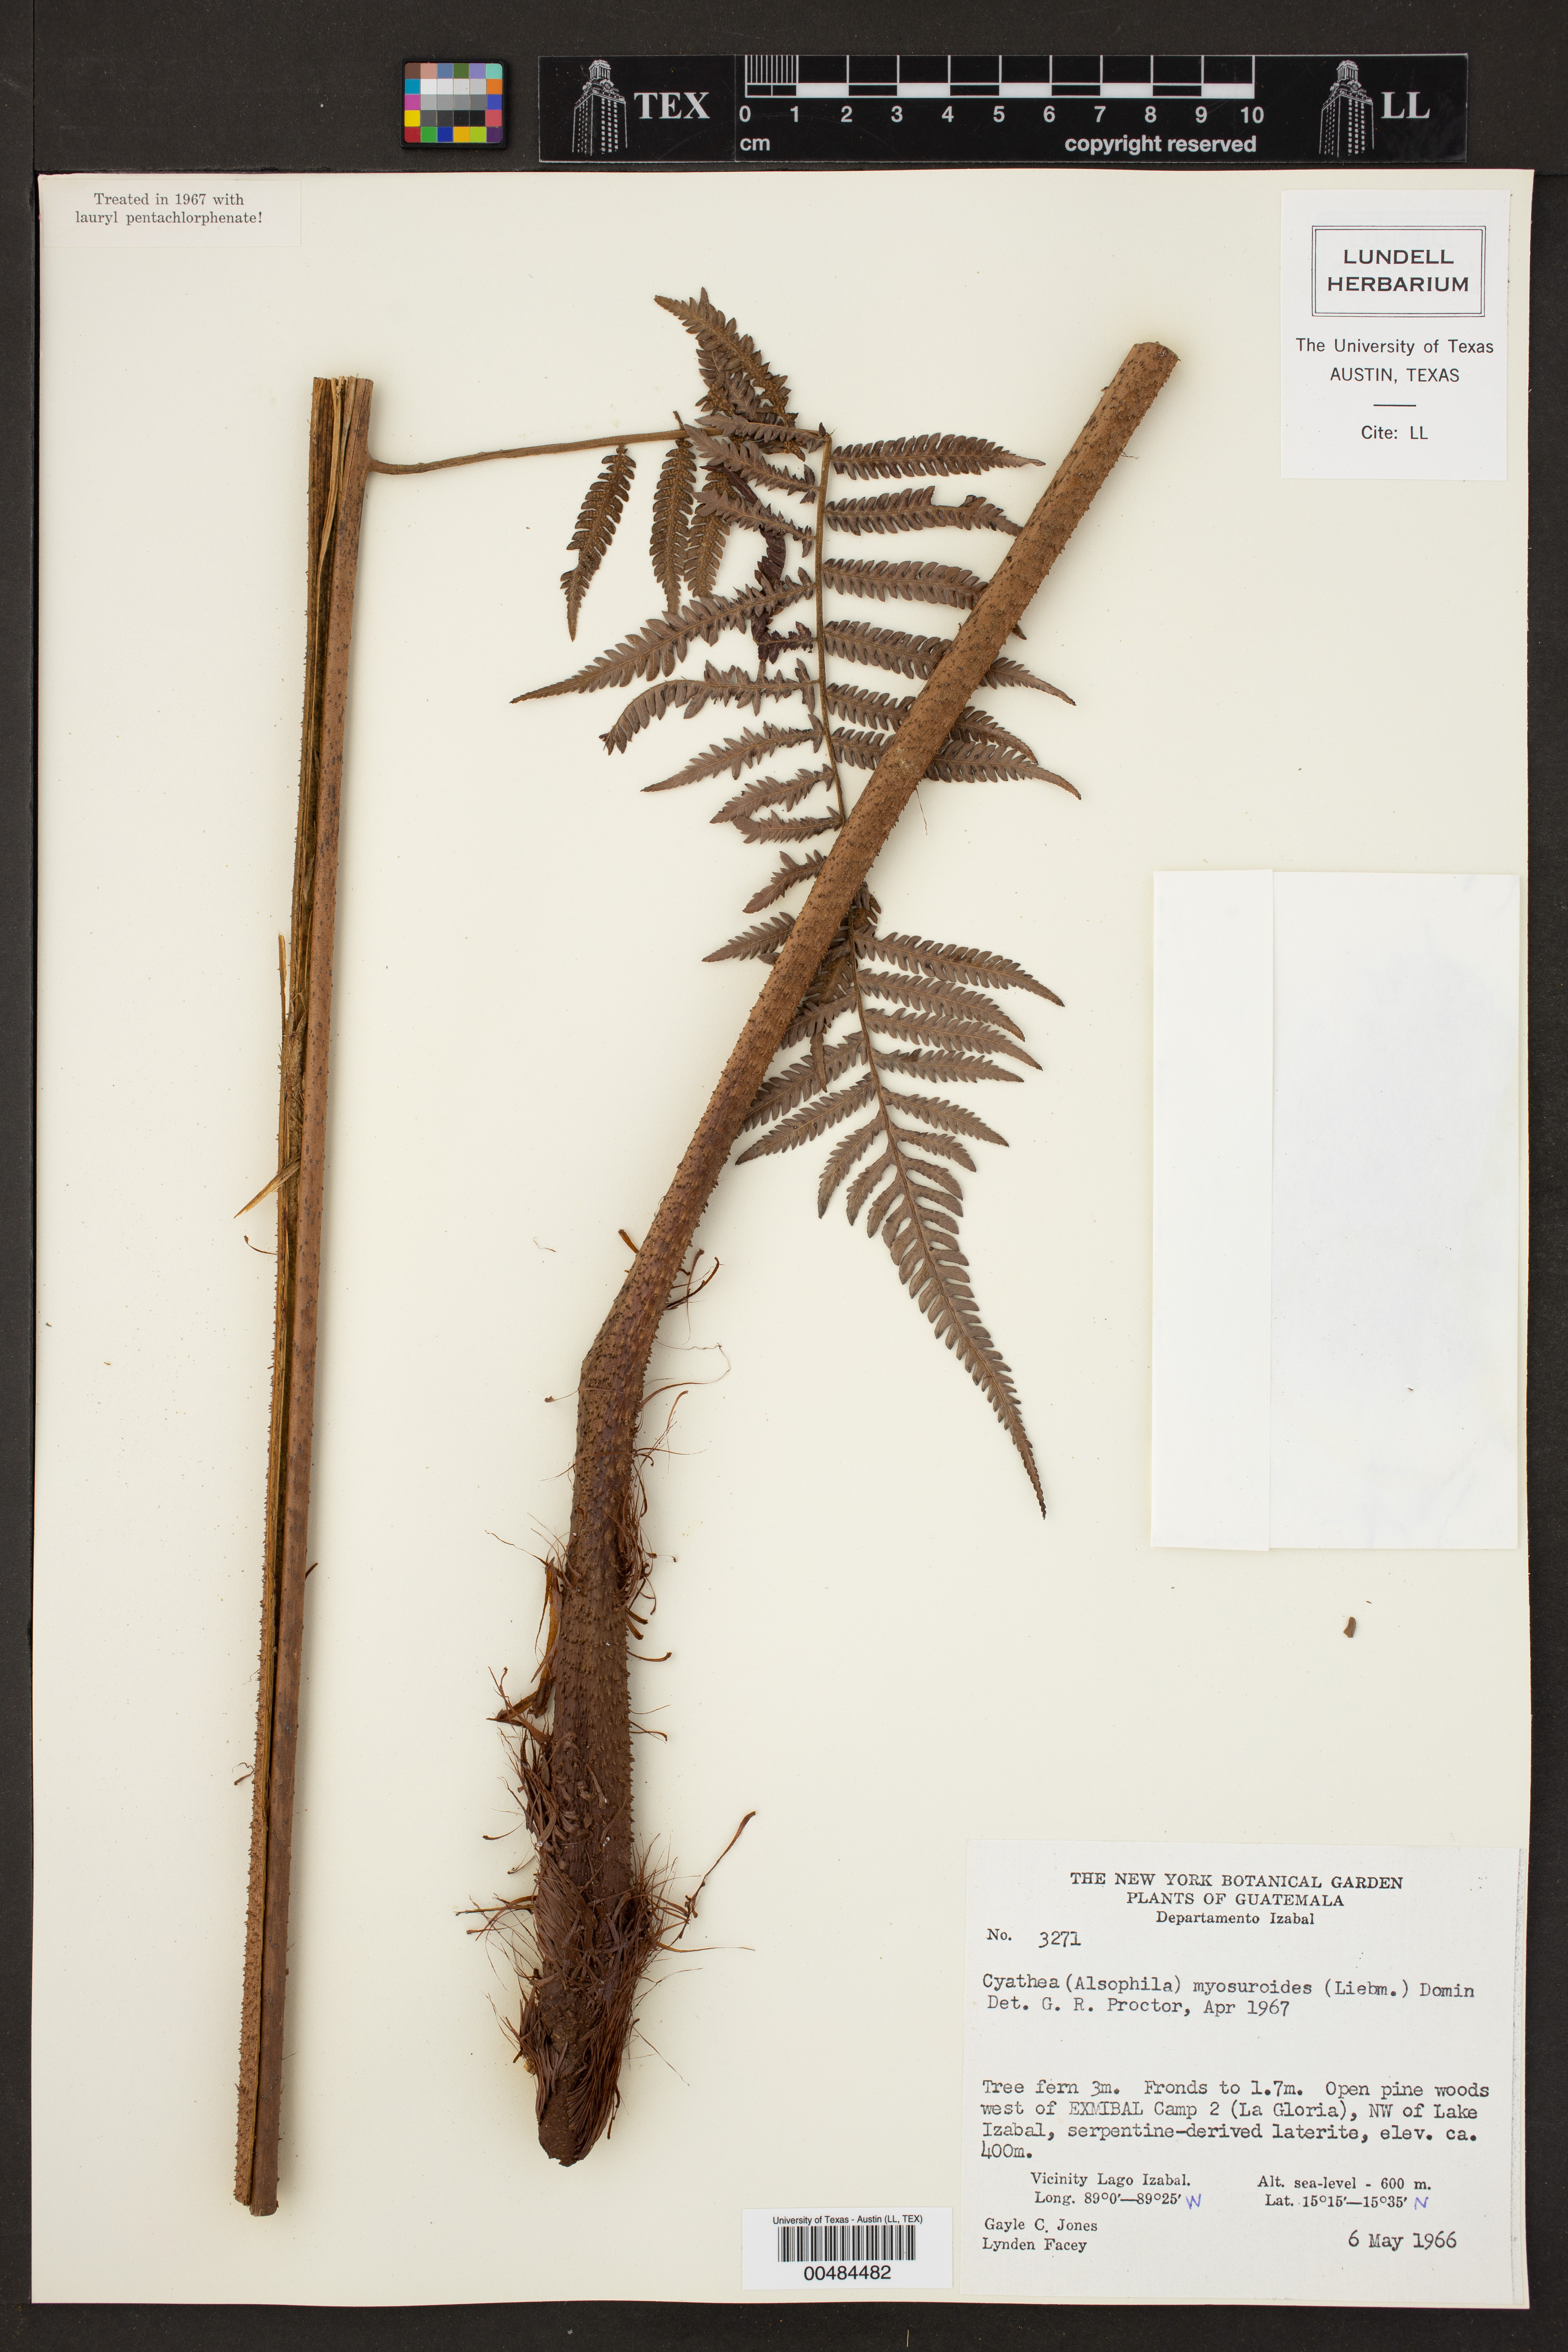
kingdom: Plantae
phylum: Tracheophyta
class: Polypodiopsida
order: Cyatheales
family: Cyatheaceae
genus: Sphaeropteris
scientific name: Sphaeropteris myosuroides
